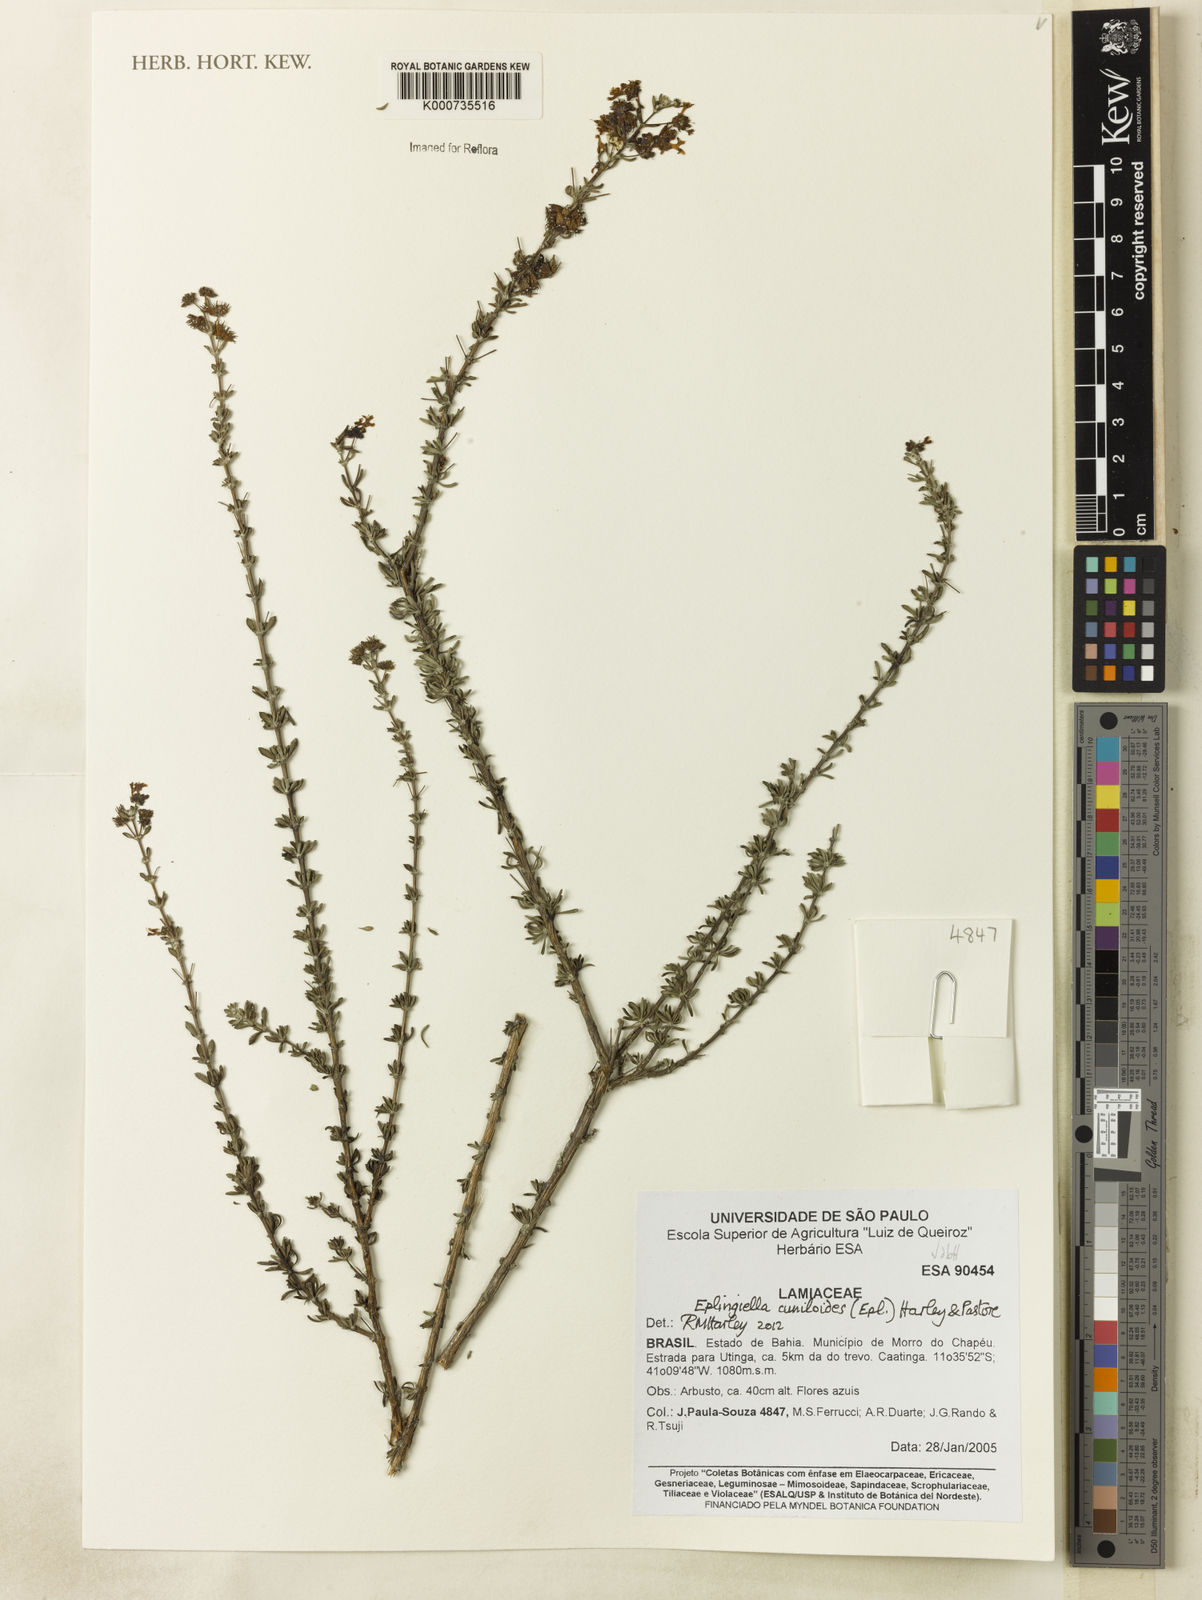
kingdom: Plantae
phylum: Tracheophyta
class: Magnoliopsida
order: Lamiales
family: Lamiaceae
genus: Eplingiella
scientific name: Eplingiella cuniloides
